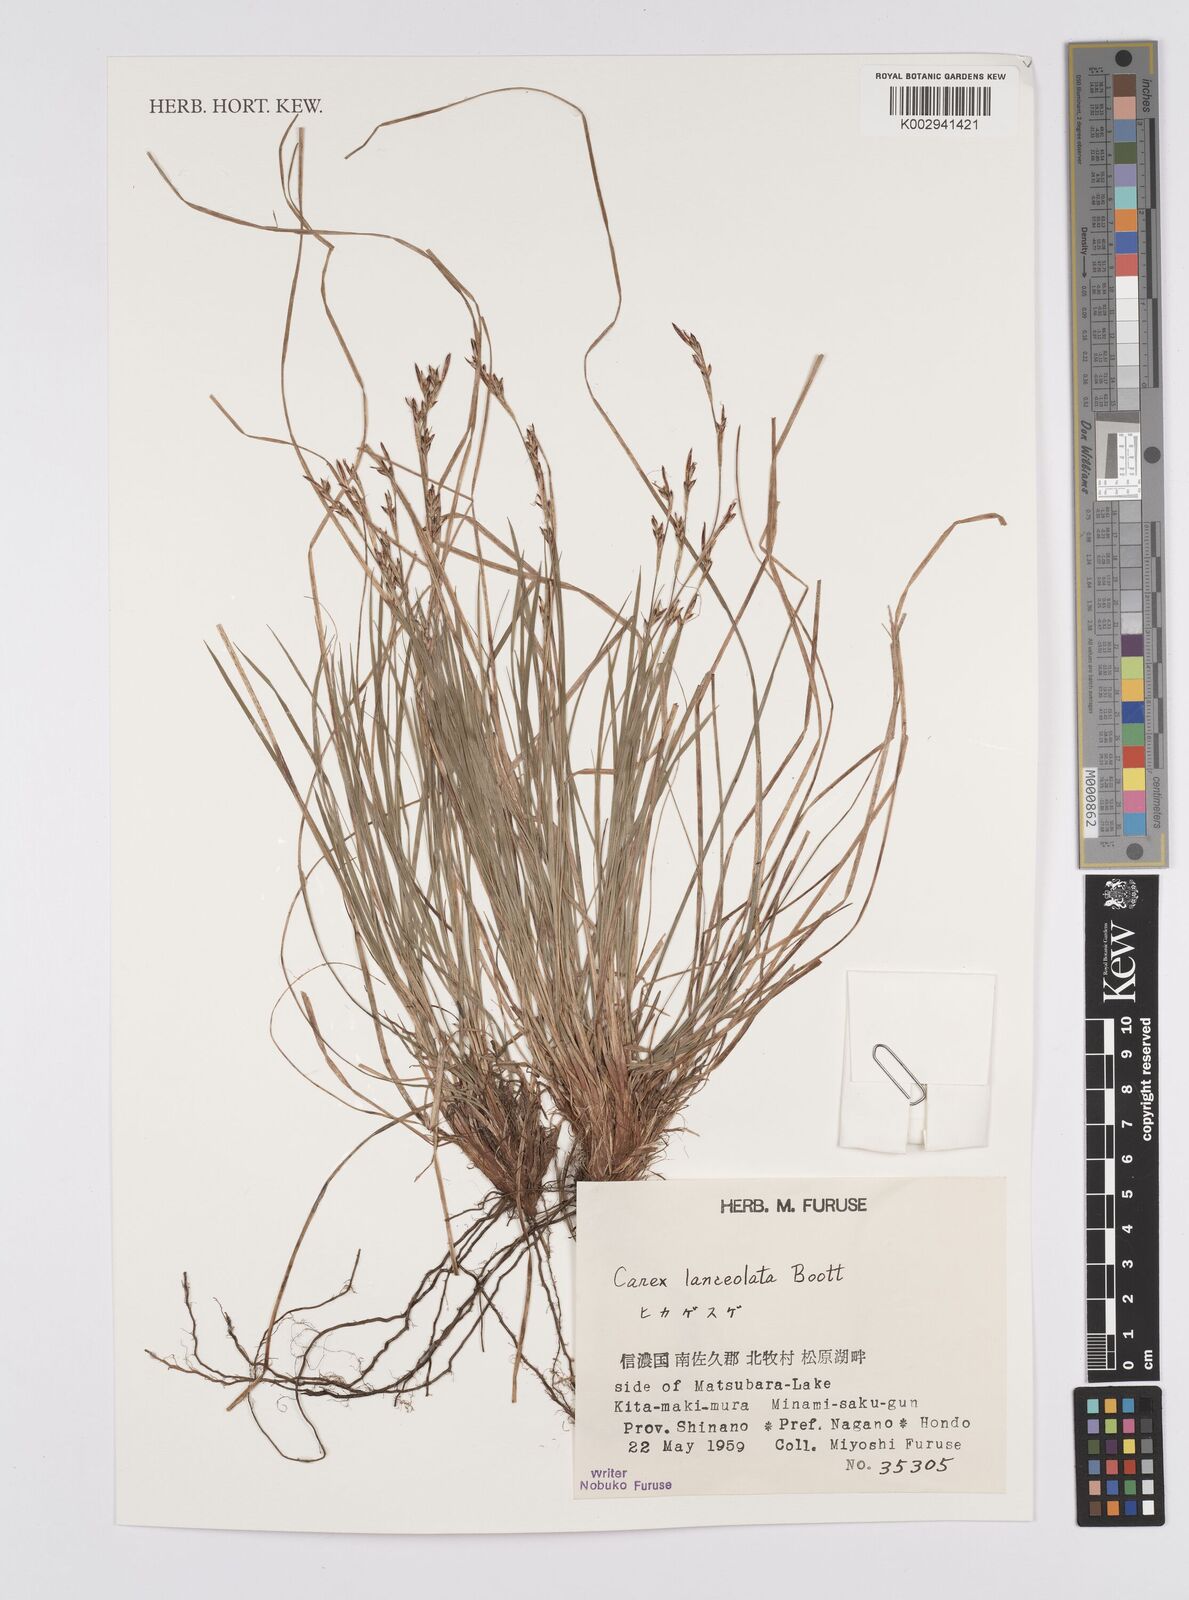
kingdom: Plantae
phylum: Tracheophyta
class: Liliopsida
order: Poales
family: Cyperaceae
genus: Carex
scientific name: Carex lanceolata
